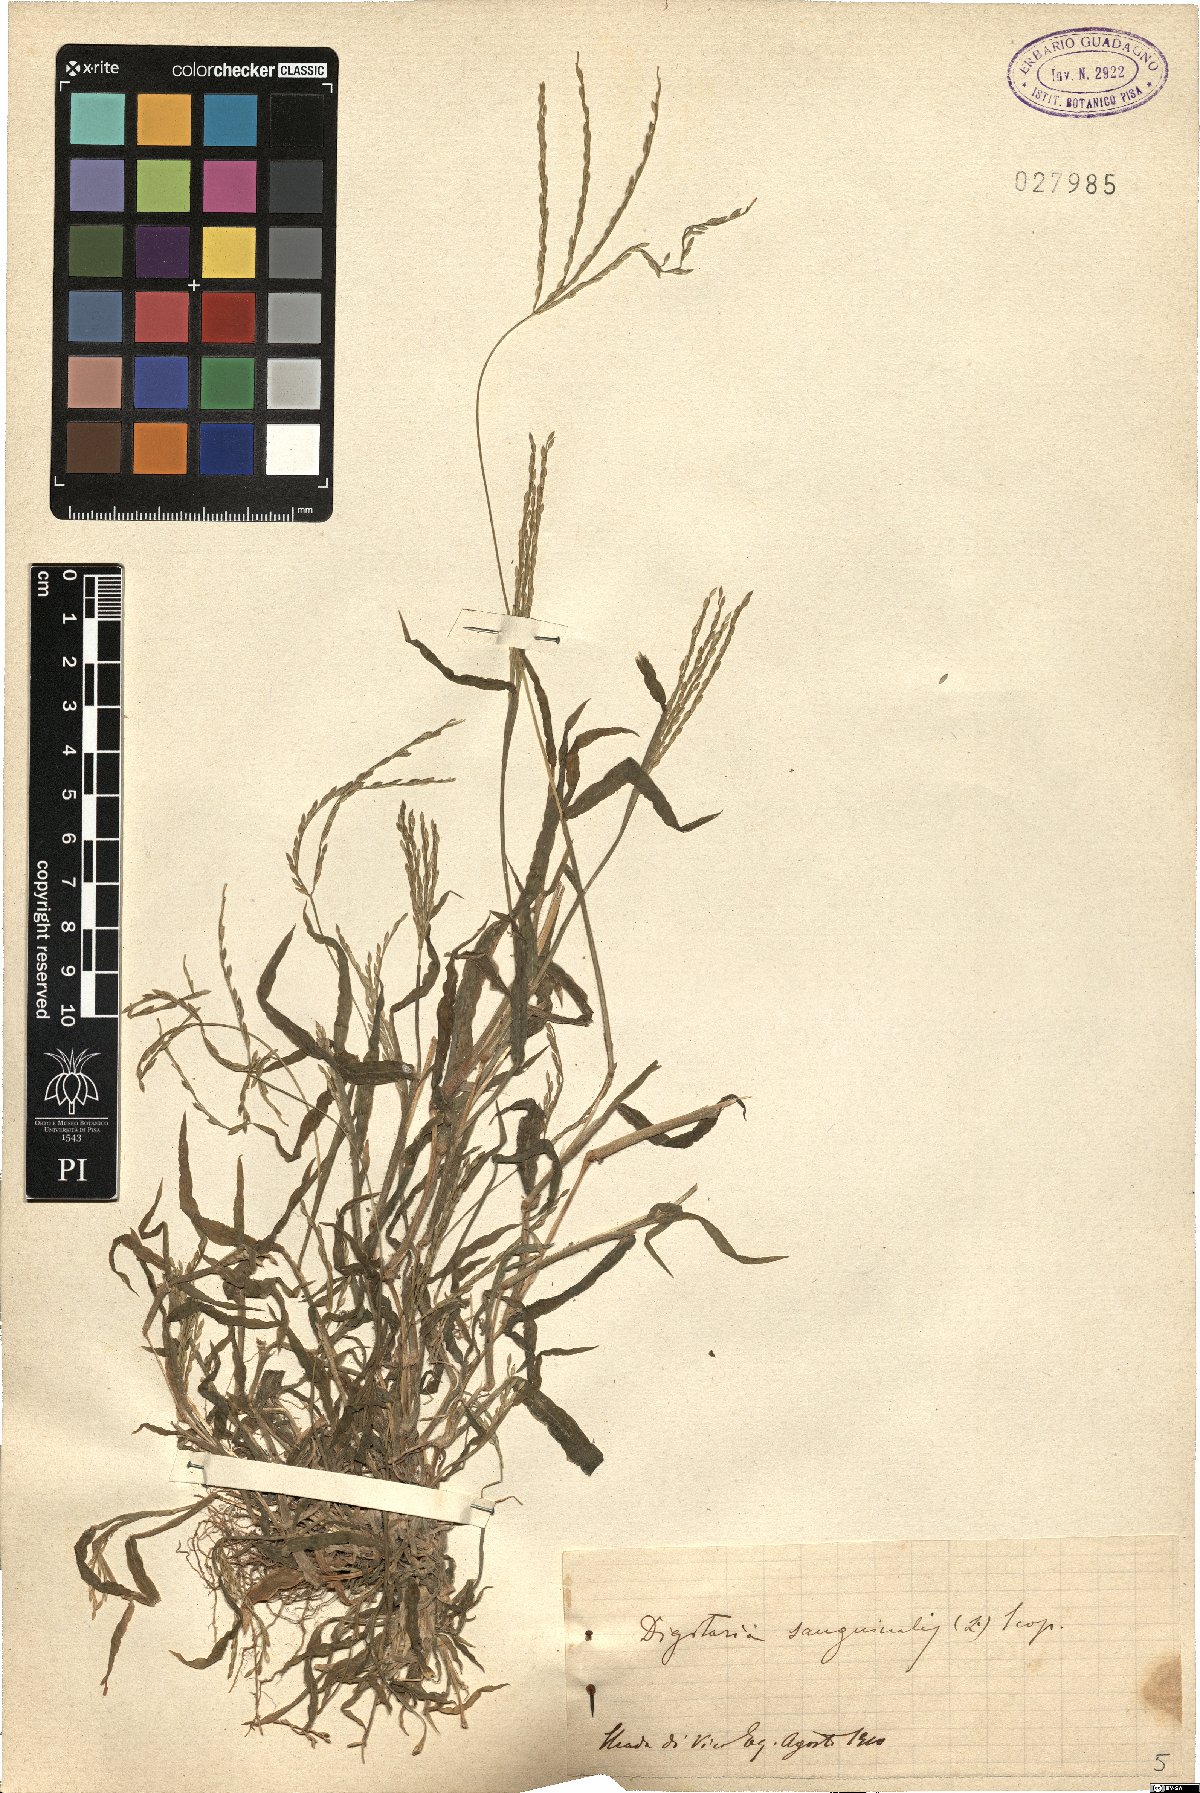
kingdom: Plantae
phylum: Tracheophyta
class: Liliopsida
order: Poales
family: Poaceae
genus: Digitaria
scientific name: Digitaria sanguinalis
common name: Hairy crabgrass
